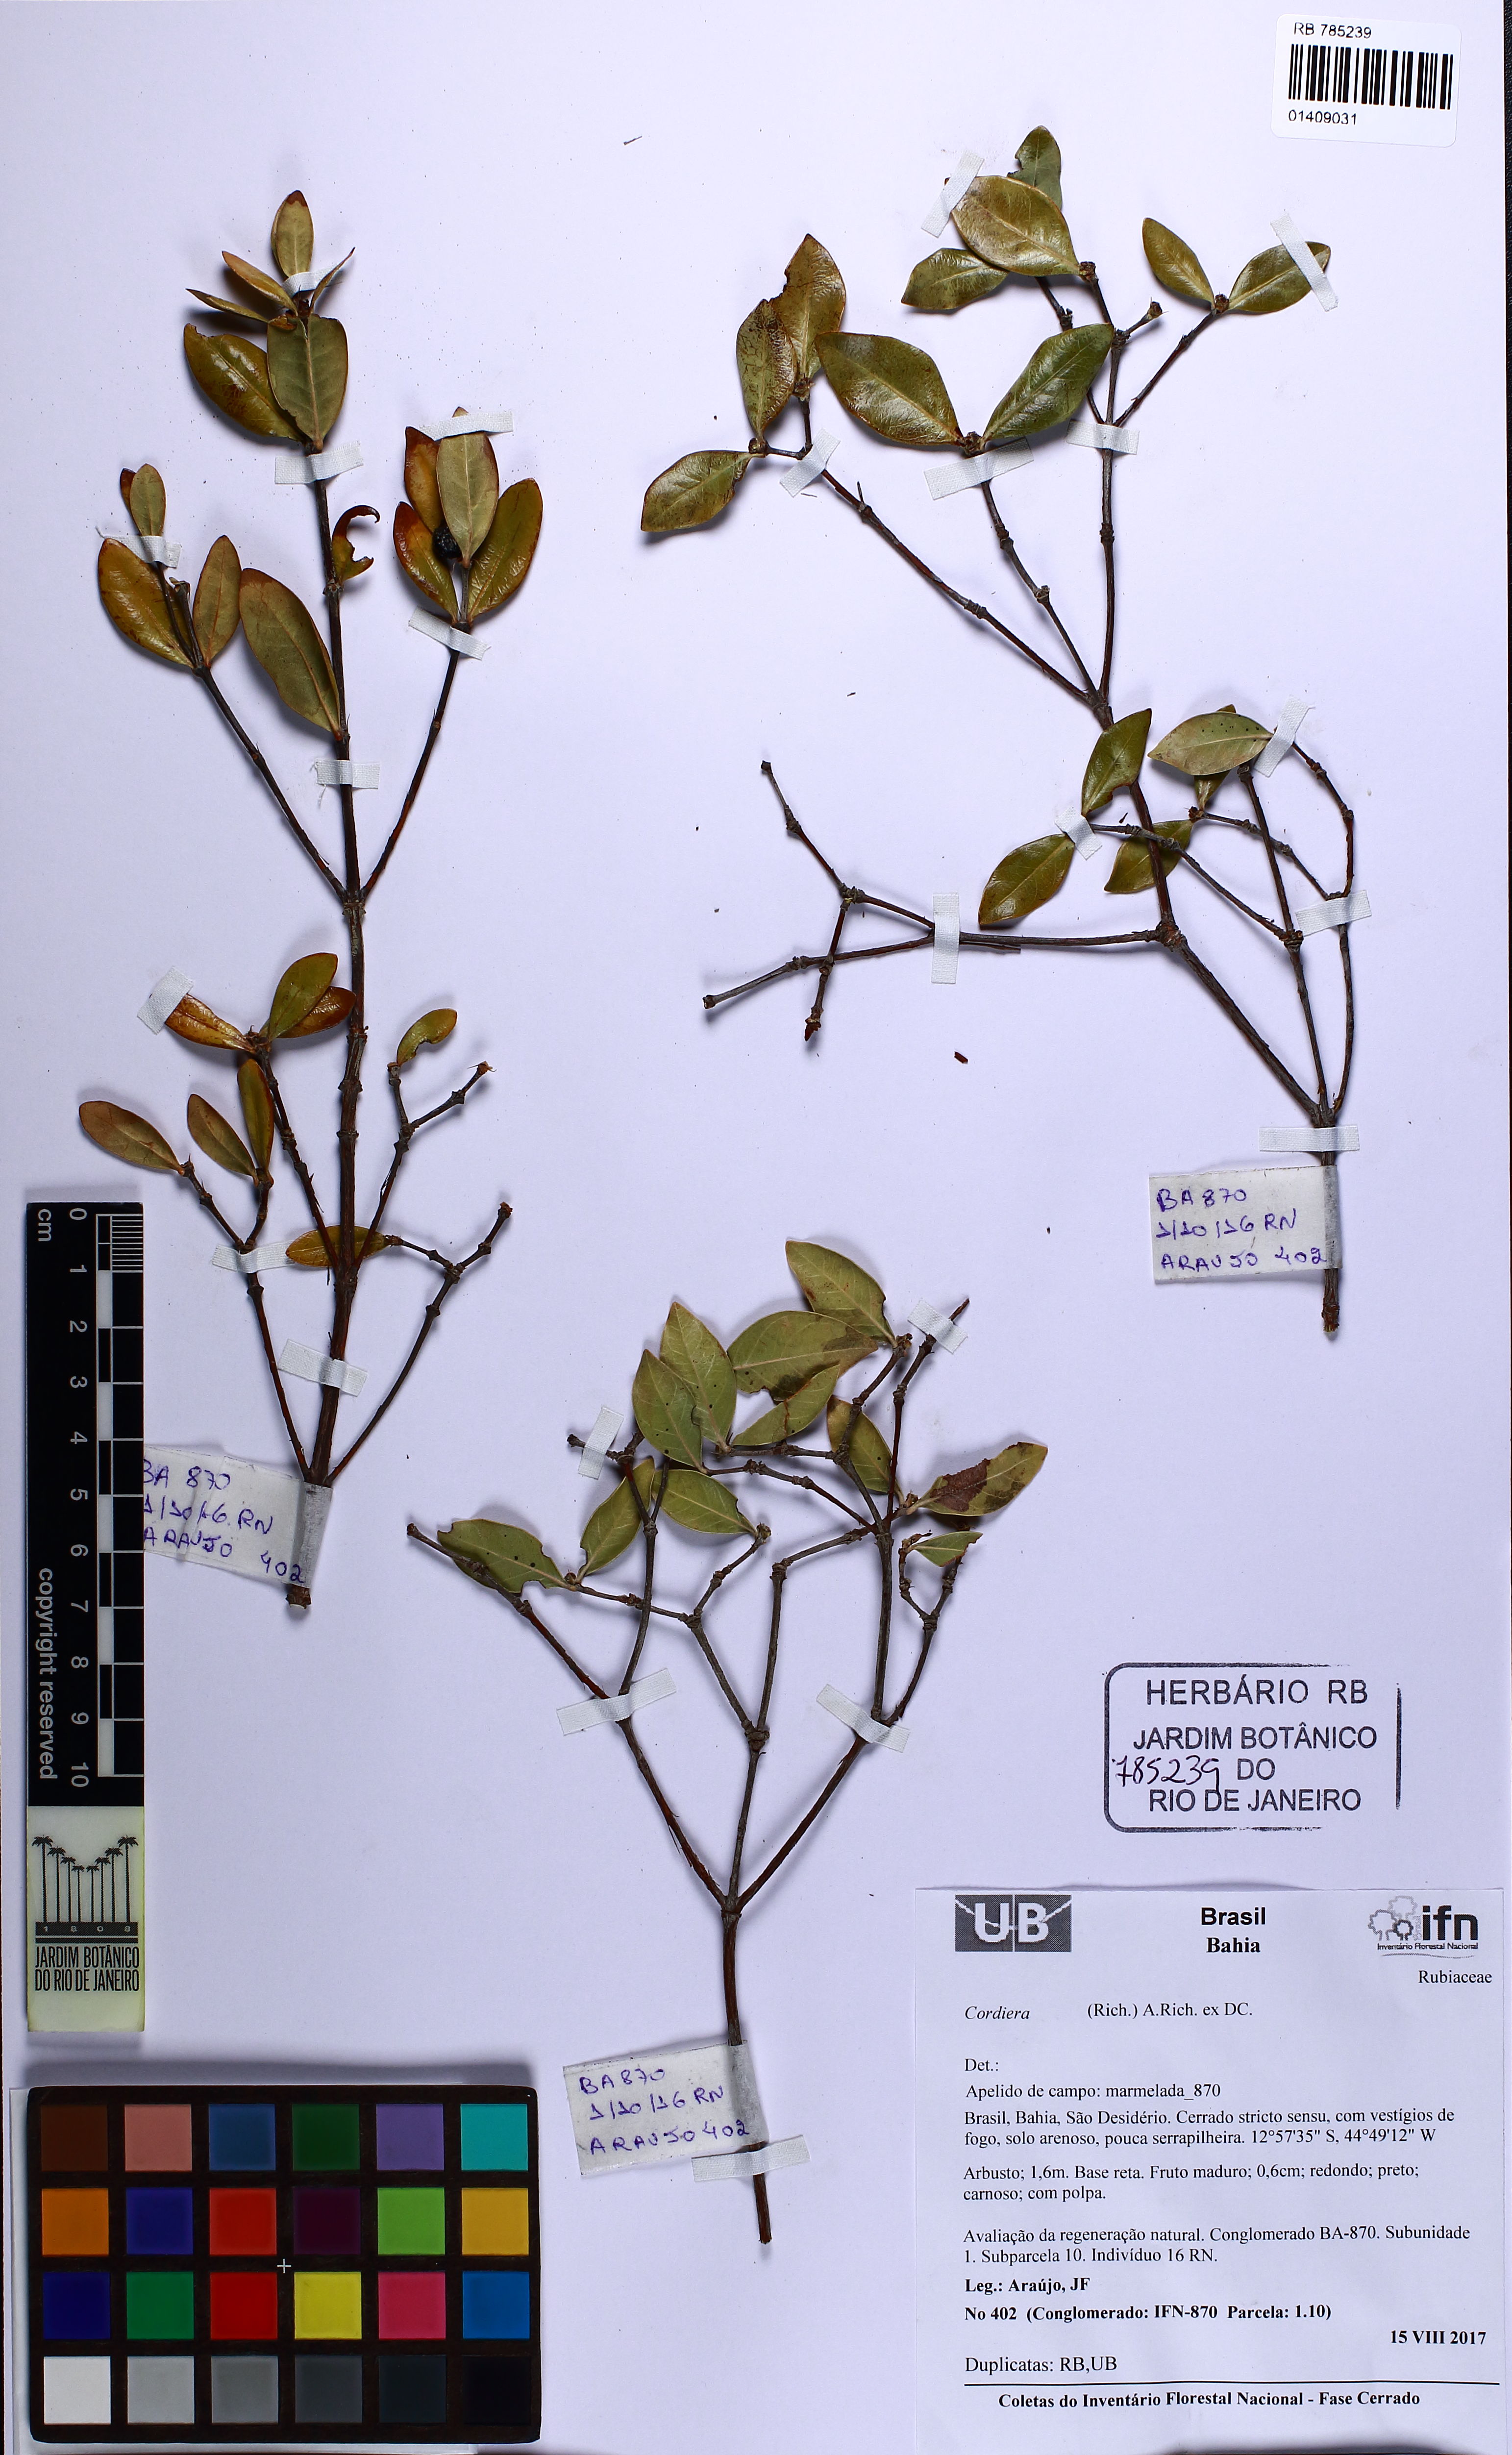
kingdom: Plantae
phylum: Tracheophyta
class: Magnoliopsida
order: Gentianales
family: Rubiaceae
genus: Cordiera
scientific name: Cordiera
